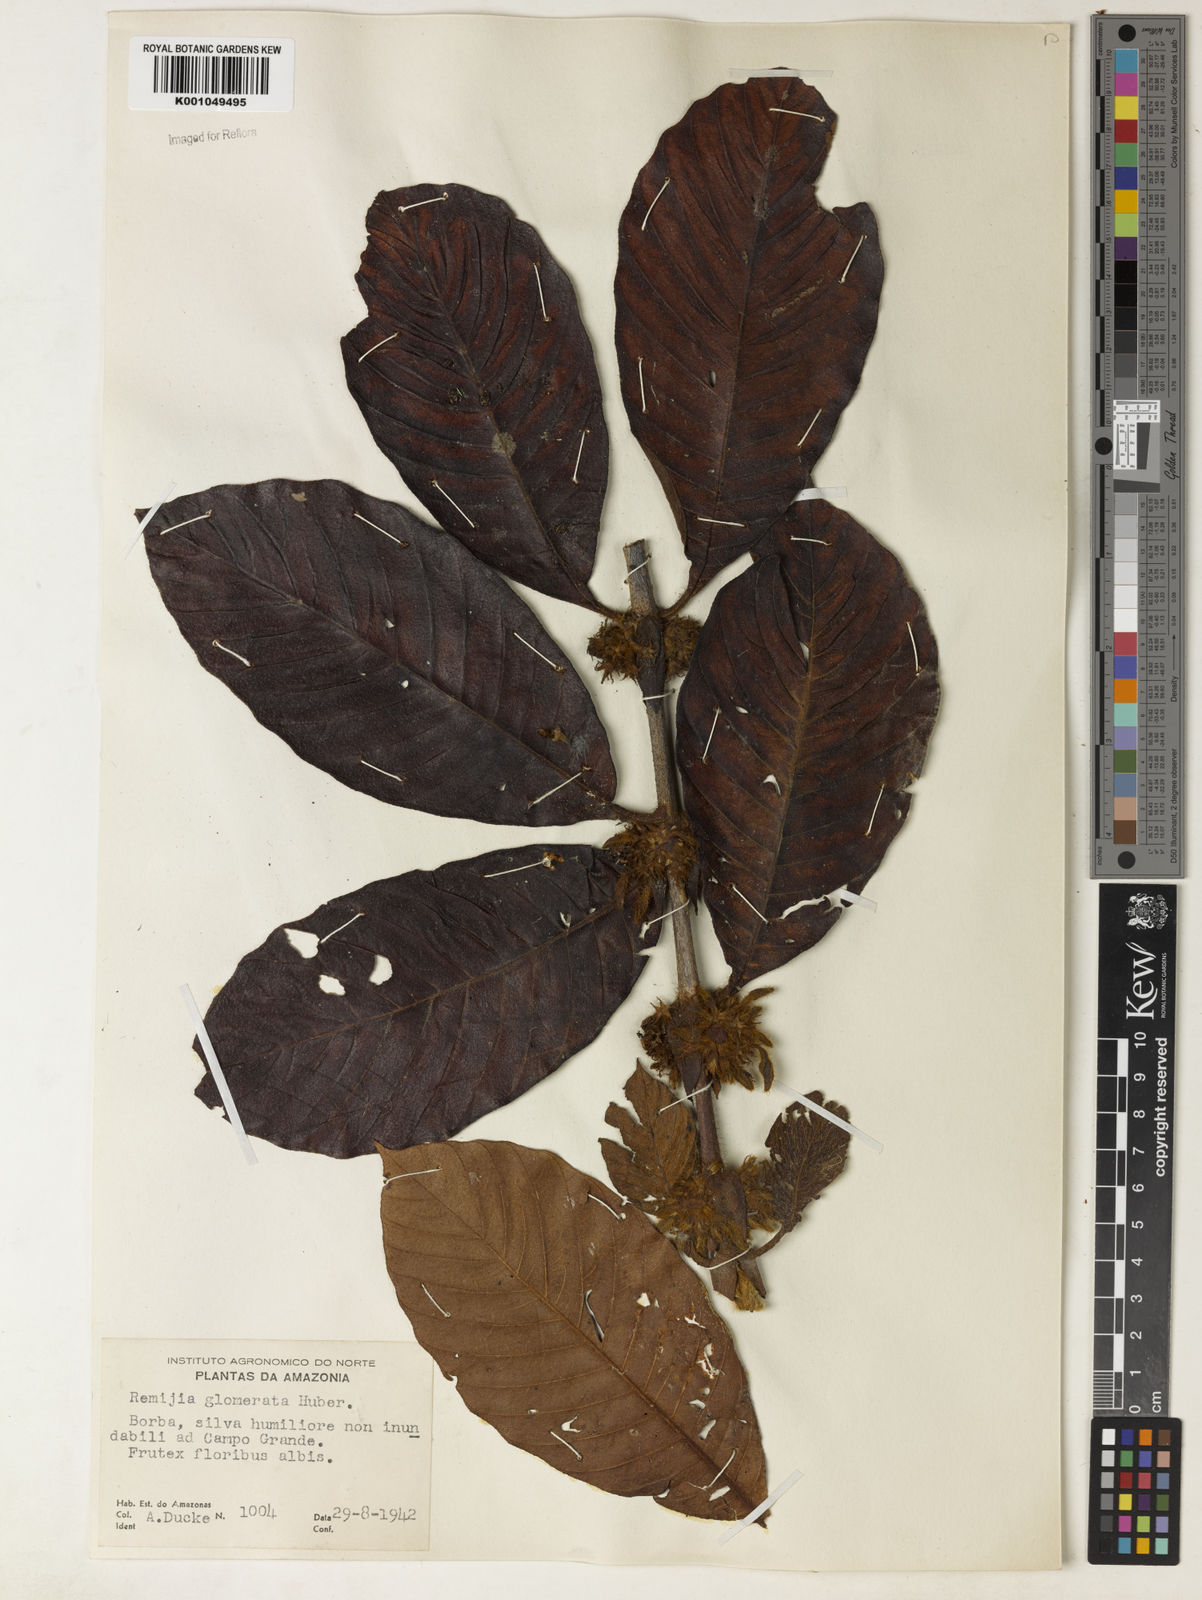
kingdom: Plantae
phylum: Tracheophyta
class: Magnoliopsida
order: Gentianales
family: Rubiaceae
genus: Remijia
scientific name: Remijia glomerata
